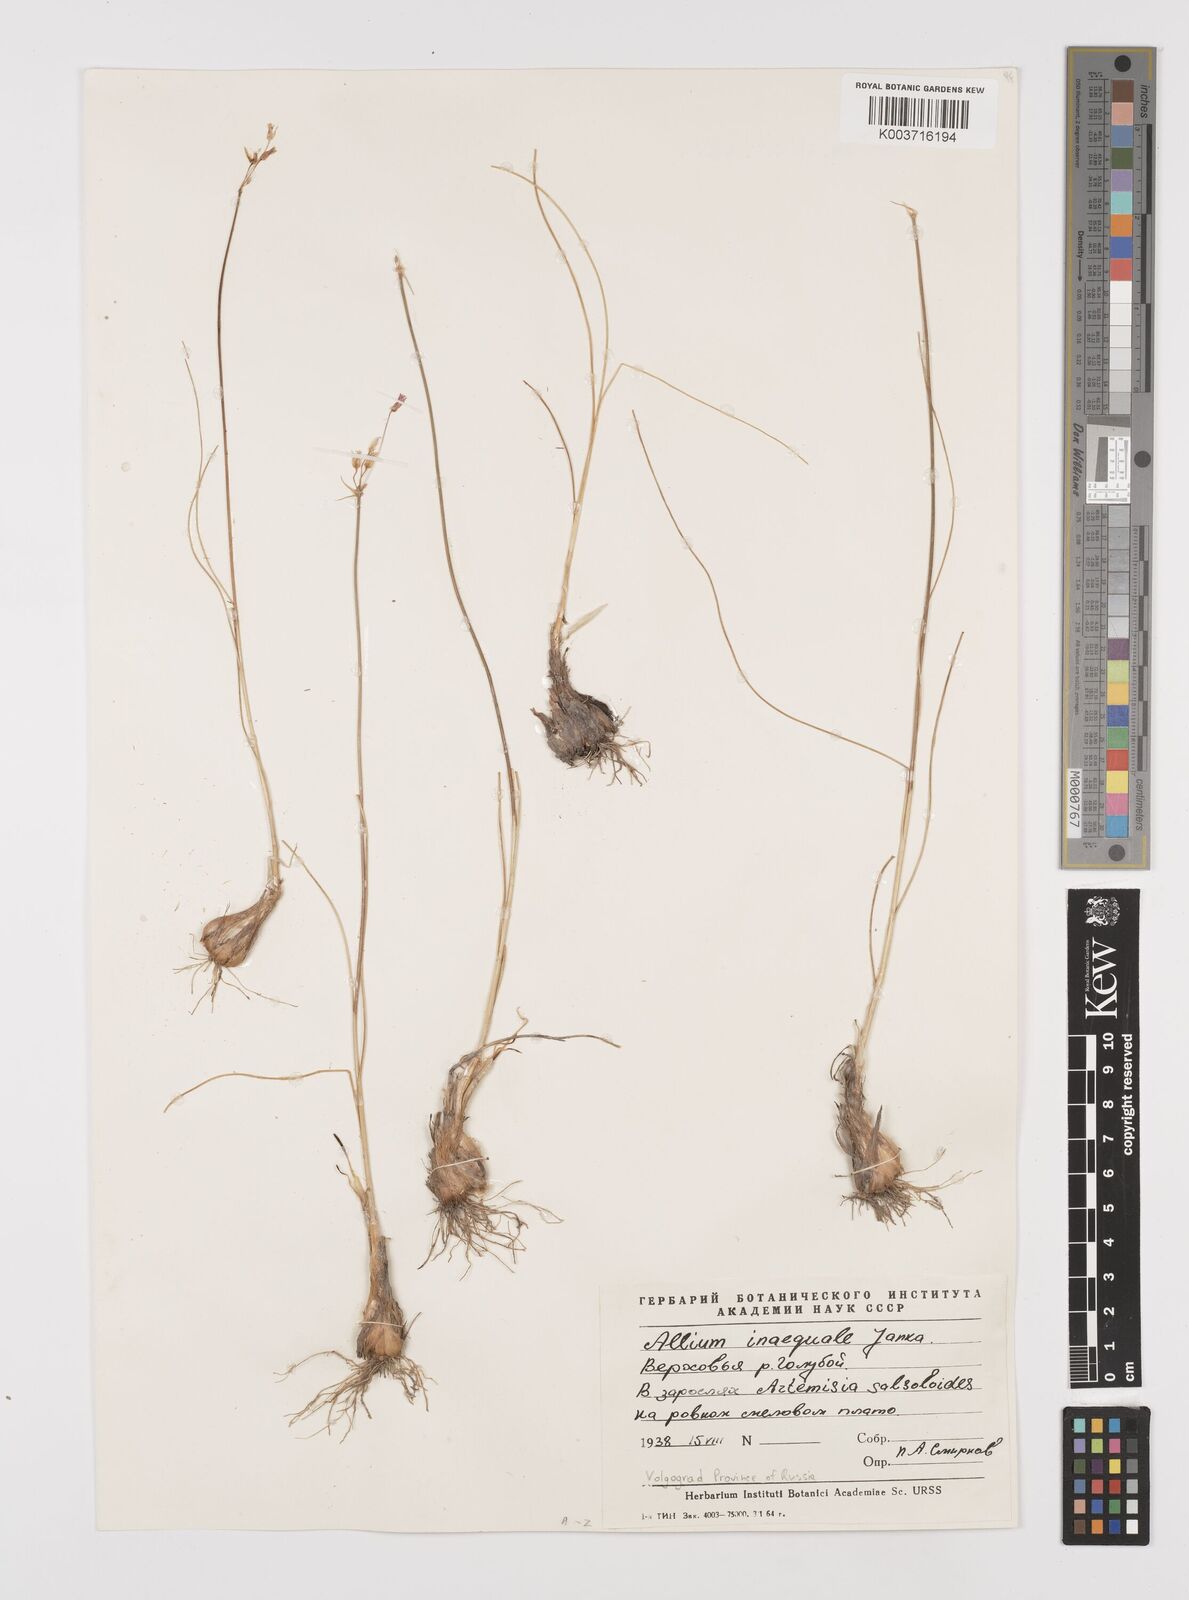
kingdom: Plantae
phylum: Tracheophyta
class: Liliopsida
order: Asparagales
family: Amaryllidaceae
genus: Allium
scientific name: Allium inaequale
